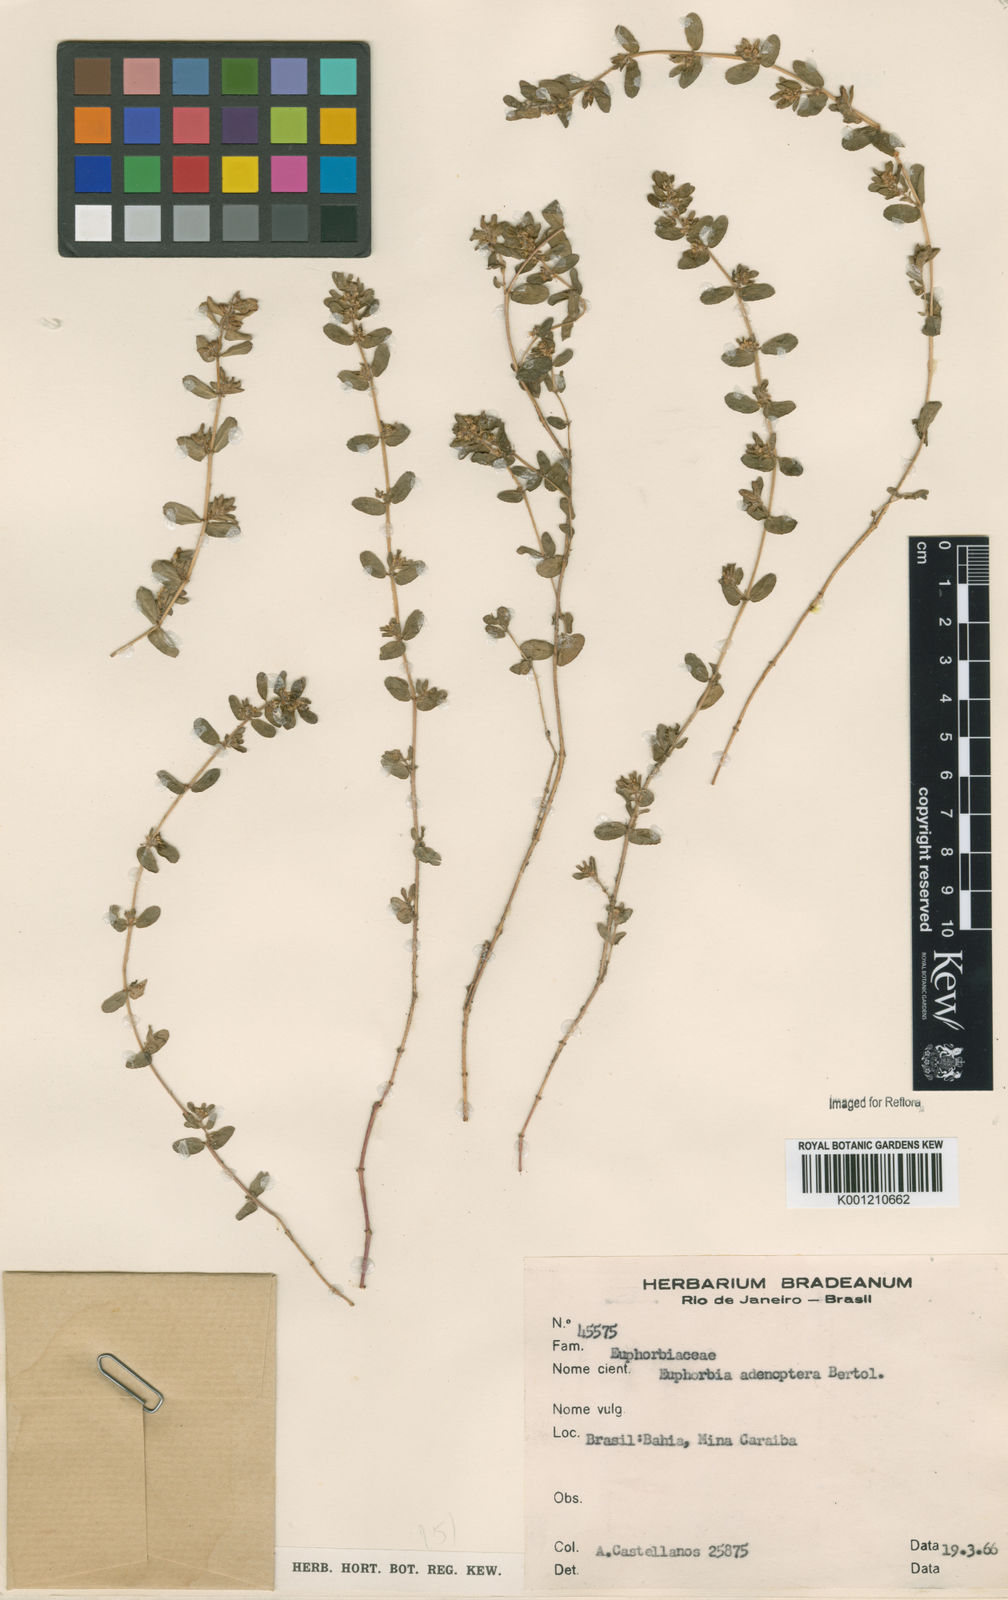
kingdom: Plantae
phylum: Tracheophyta
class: Magnoliopsida
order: Malpighiales
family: Euphorbiaceae
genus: Euphorbia
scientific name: Euphorbia
